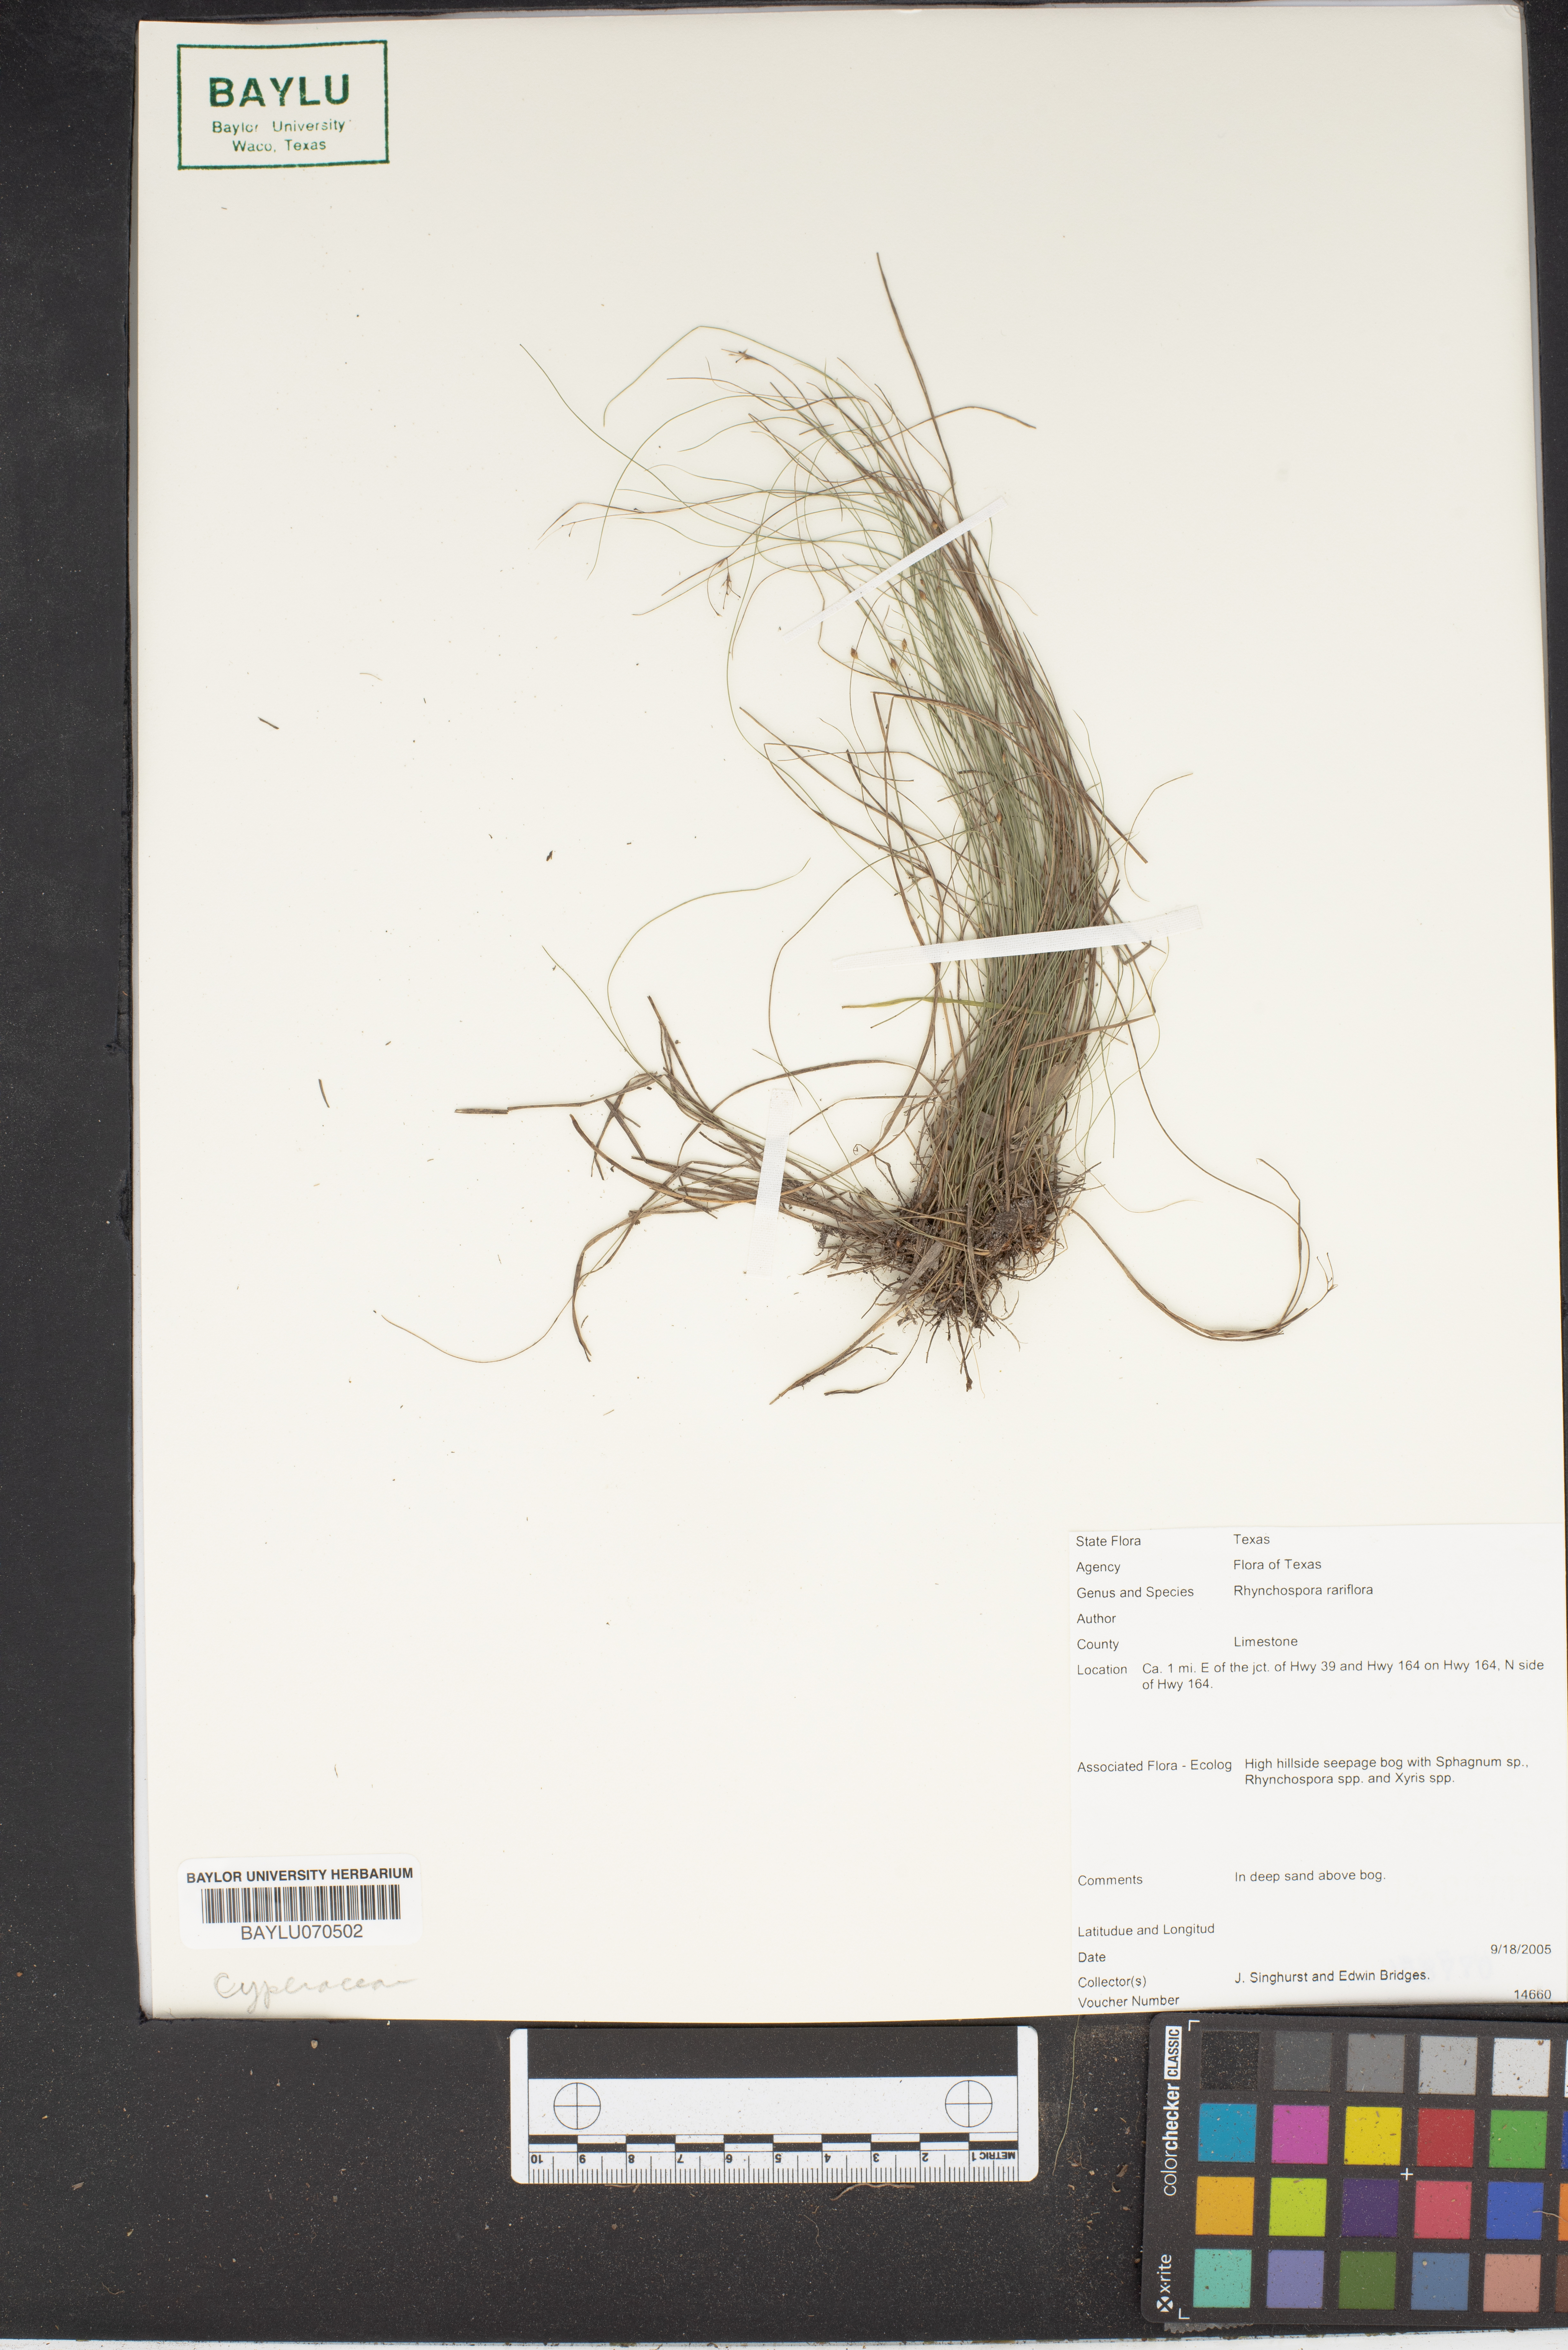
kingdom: Plantae
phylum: Tracheophyta
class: Liliopsida
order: Poales
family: Cyperaceae
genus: Rhynchospora
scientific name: Rhynchospora rariflora
